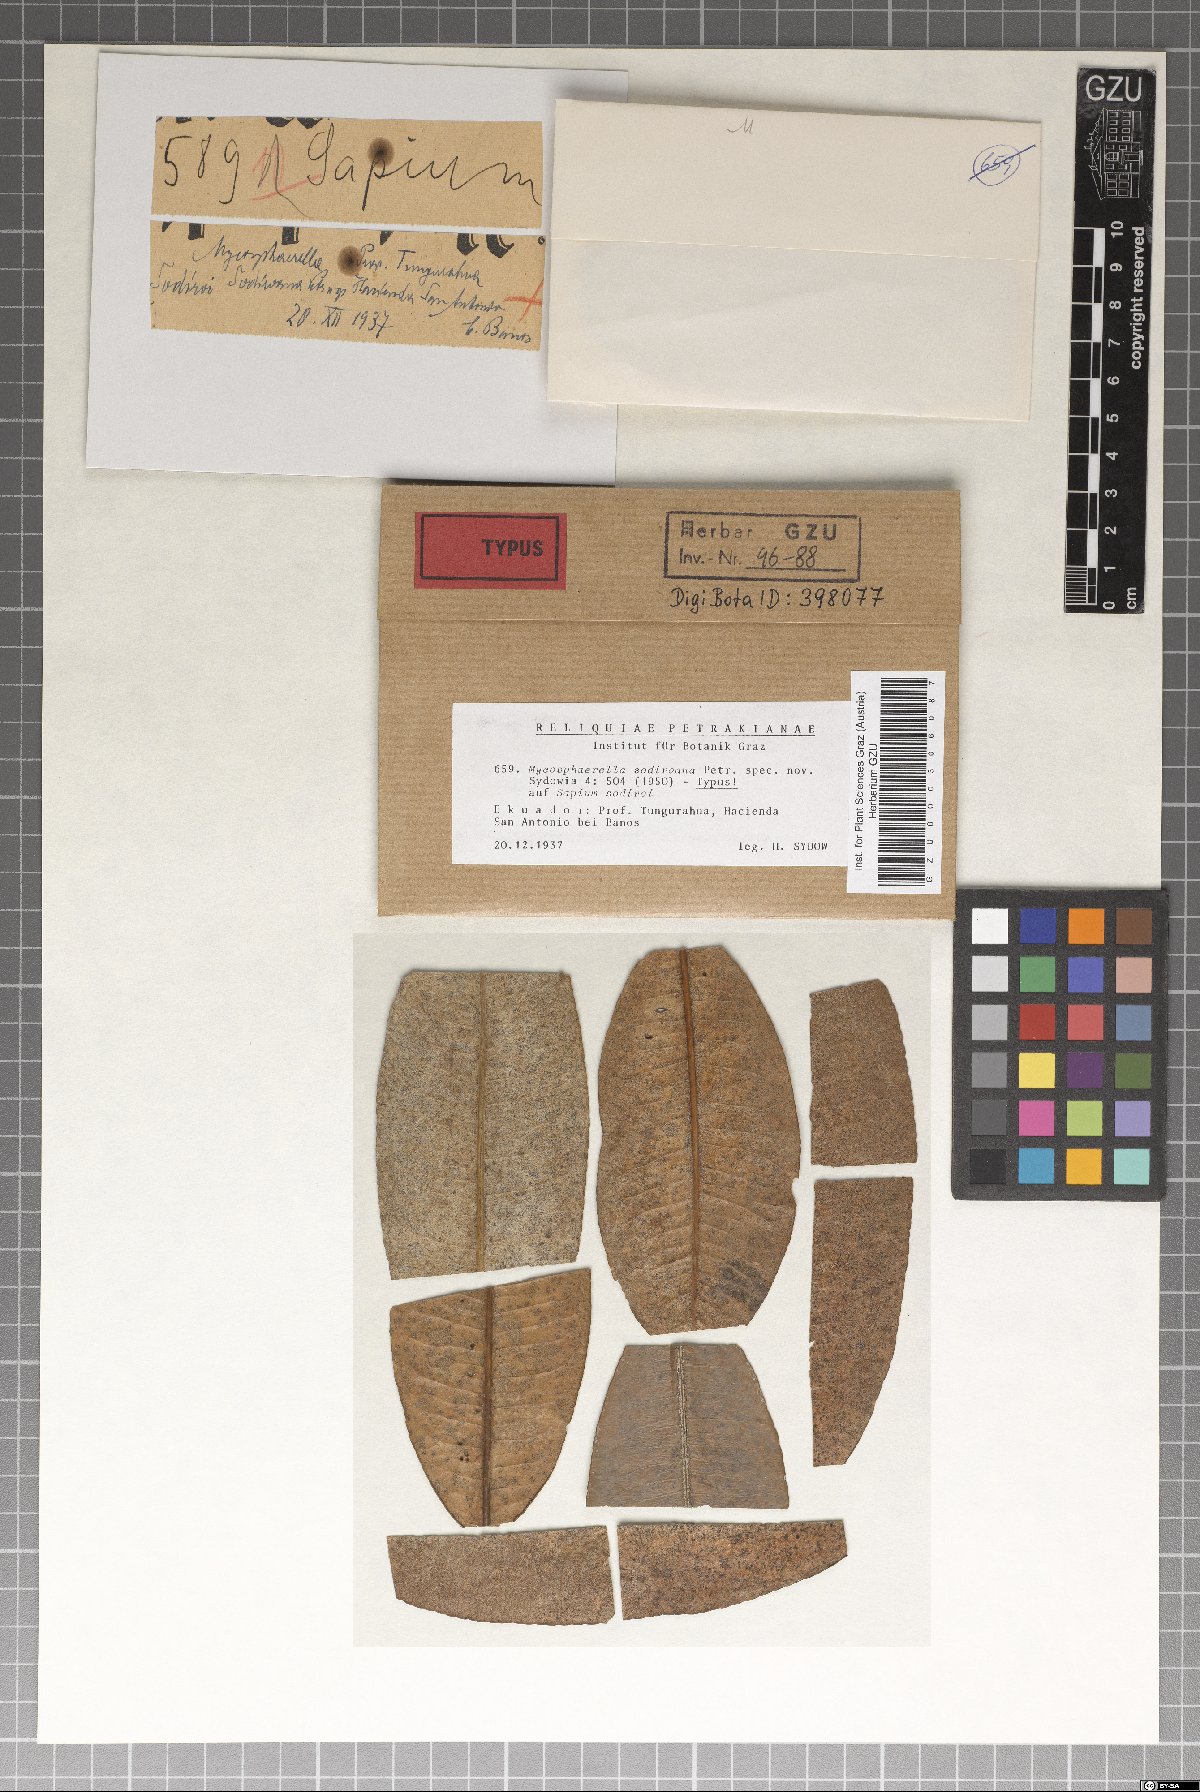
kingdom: Fungi
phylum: Ascomycota
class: Dothideomycetes
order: Mycosphaerellales
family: Mycosphaerellaceae
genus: Mycosphaerella
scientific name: Mycosphaerella sodiroana
